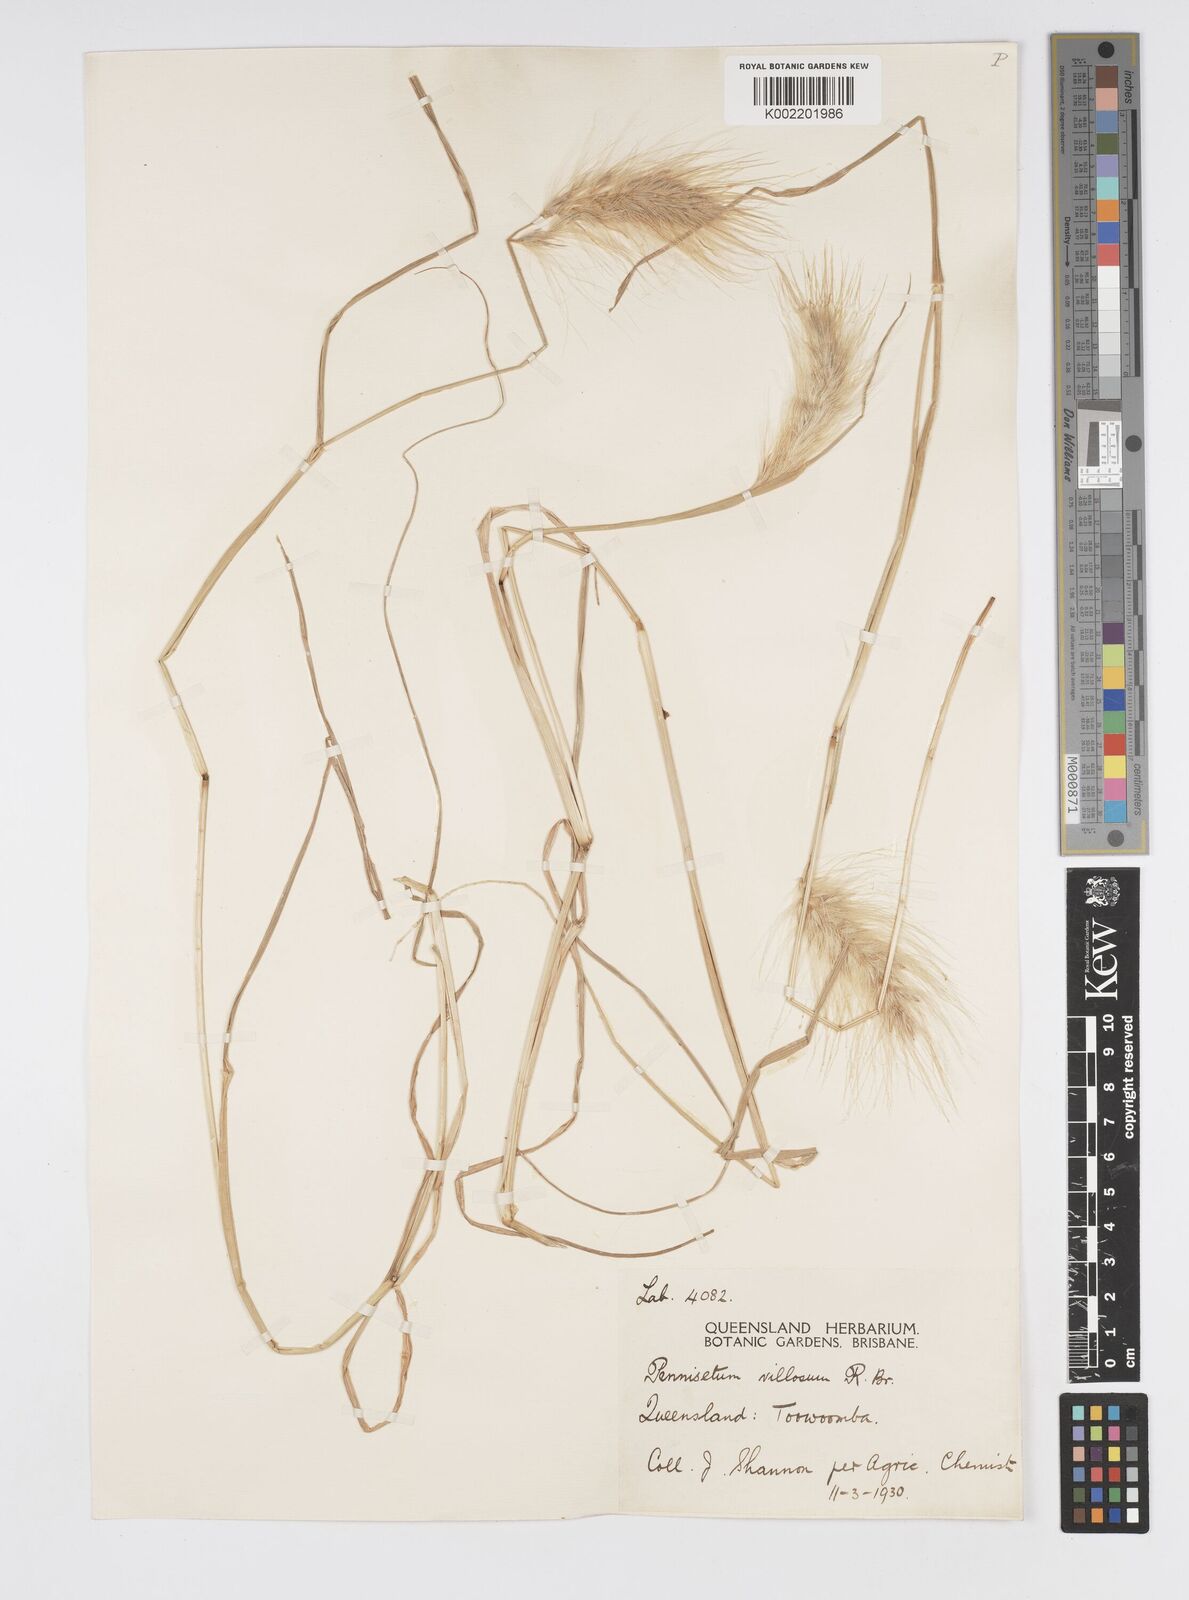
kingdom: Plantae
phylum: Tracheophyta
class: Liliopsida
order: Poales
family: Poaceae
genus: Cenchrus
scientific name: Cenchrus longisetus
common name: Feathertop
